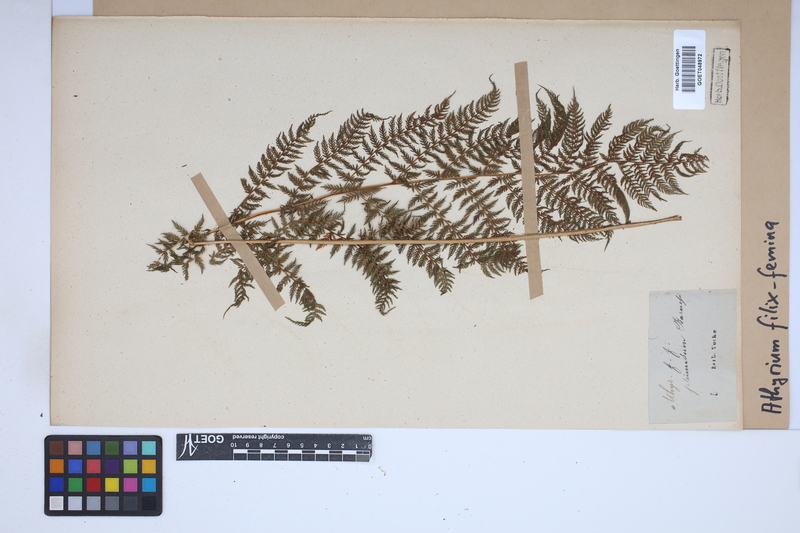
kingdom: Plantae
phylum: Tracheophyta
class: Polypodiopsida
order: Polypodiales
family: Athyriaceae
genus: Athyrium
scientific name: Athyrium filix-femina
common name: Lady fern
